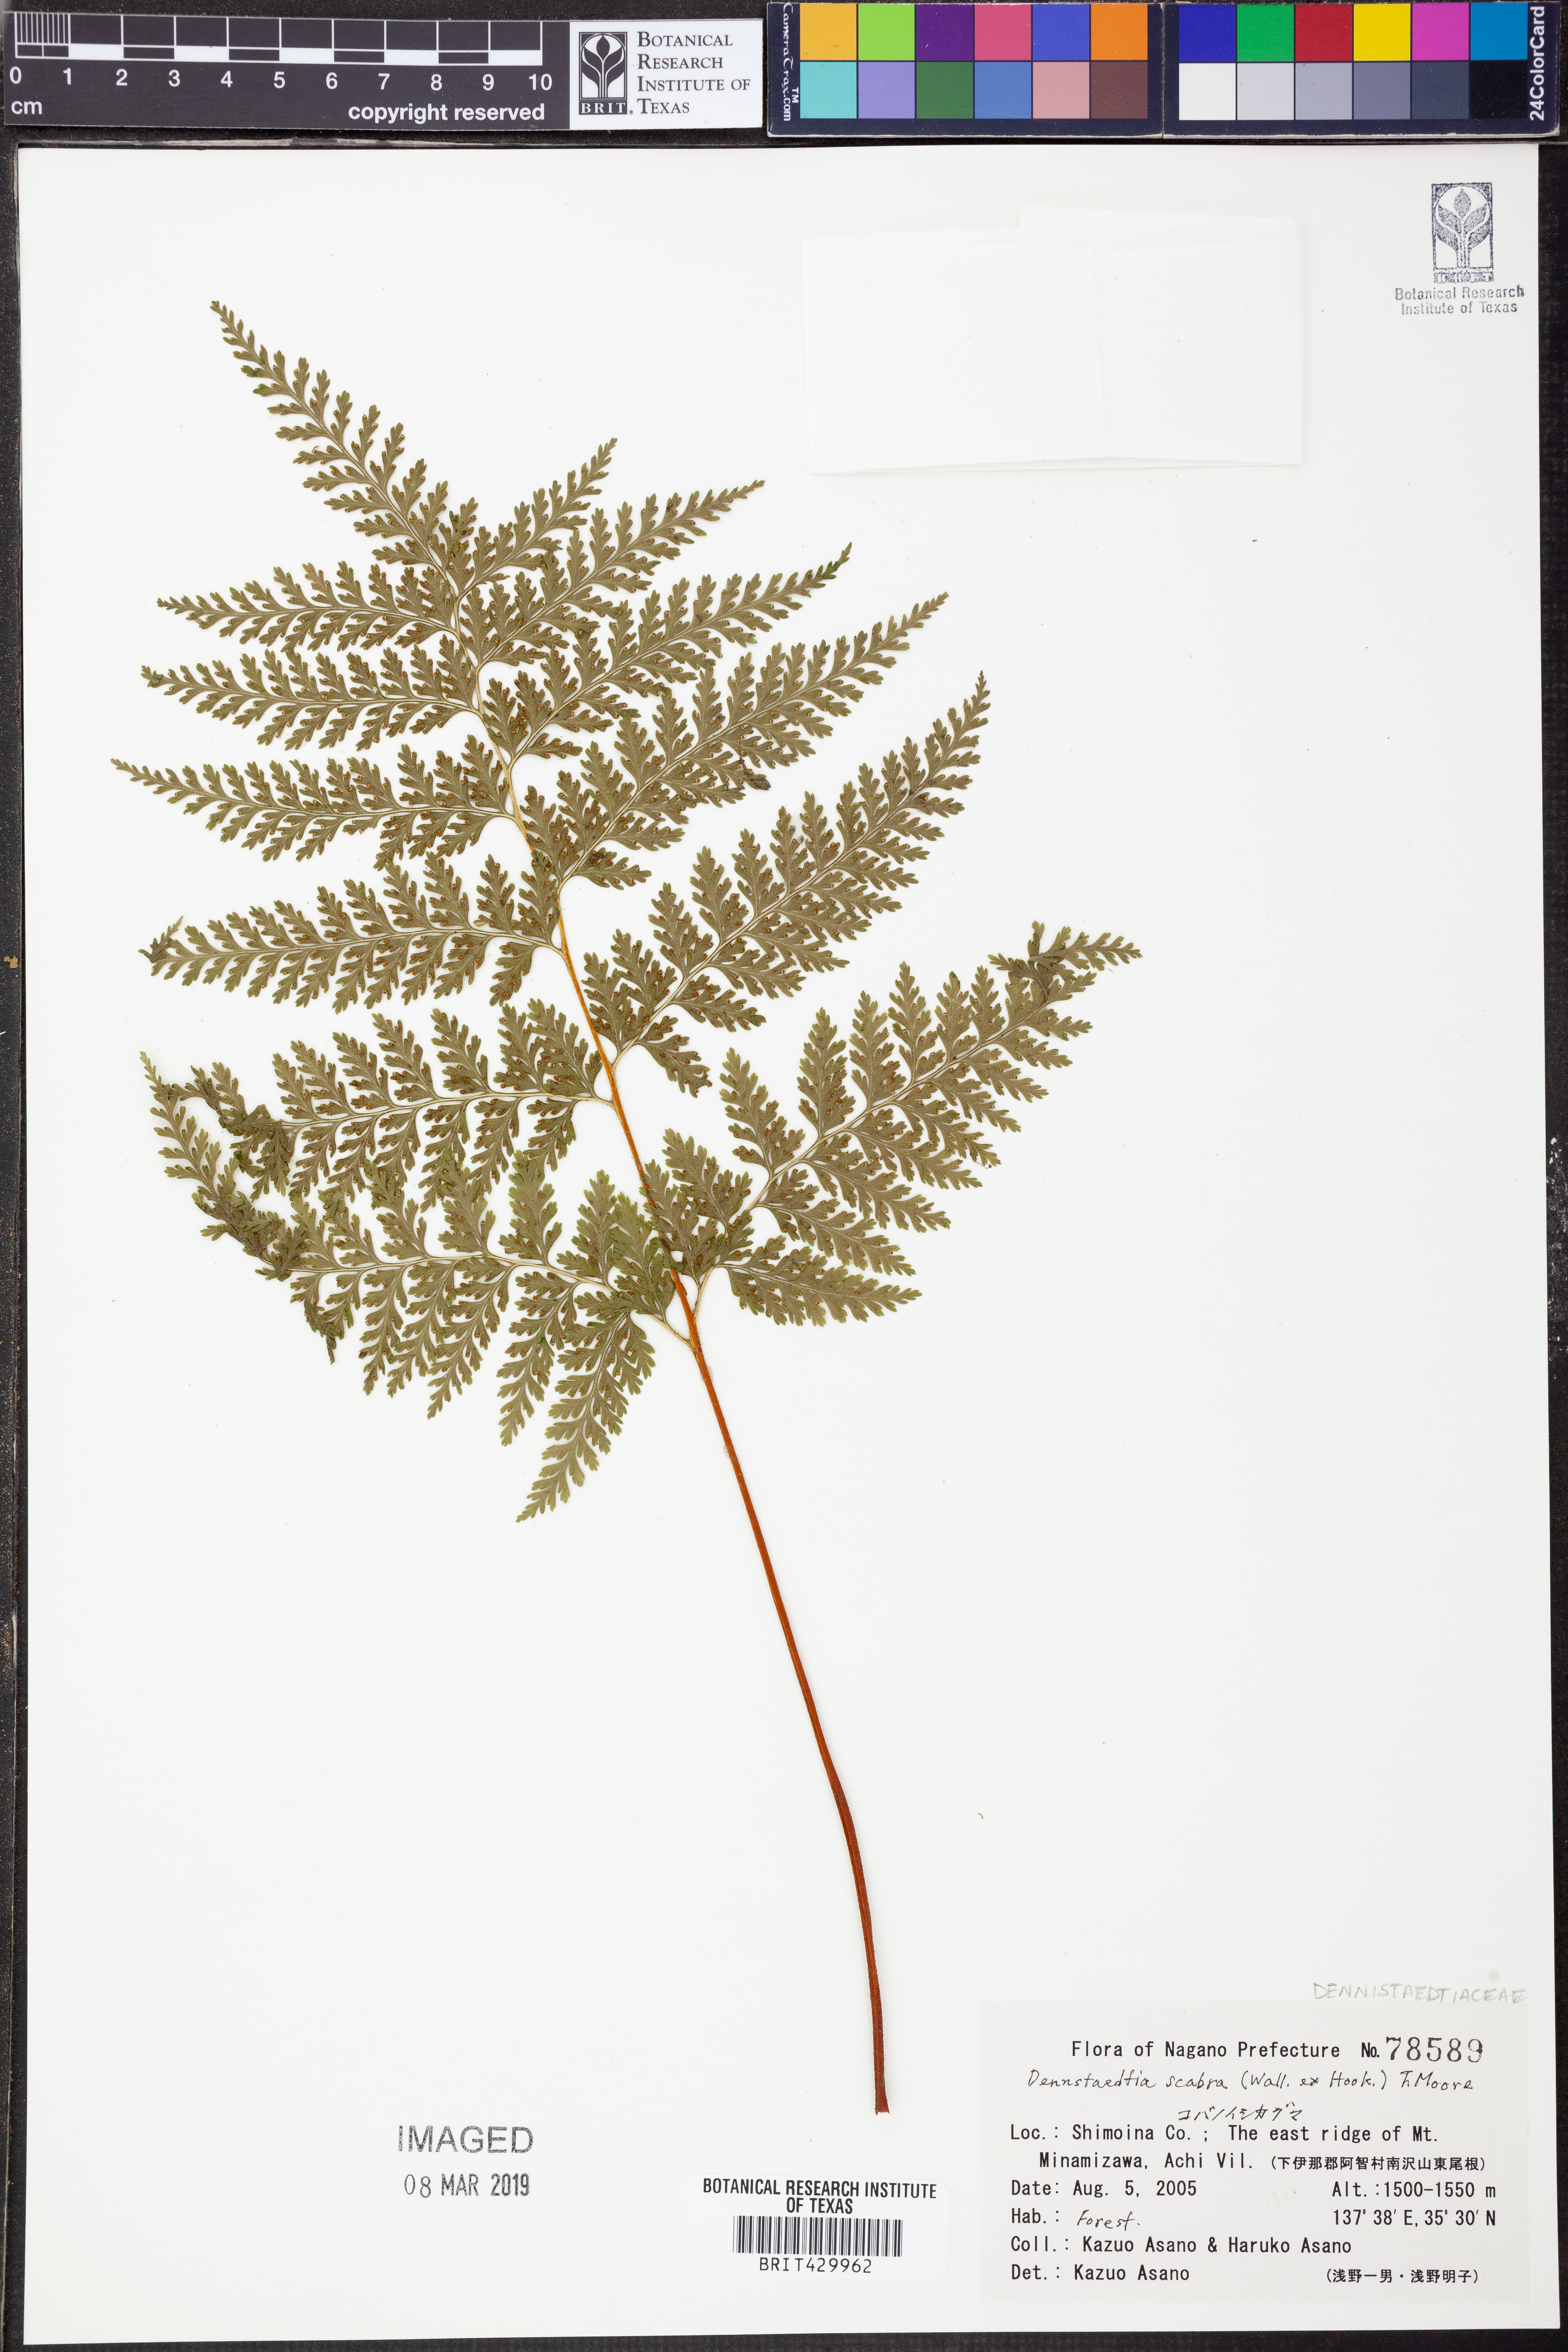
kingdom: Plantae
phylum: Tracheophyta
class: Polypodiopsida
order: Polypodiales
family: Dennstaedtiaceae
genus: Sitobolium
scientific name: Sitobolium zeylanicum
